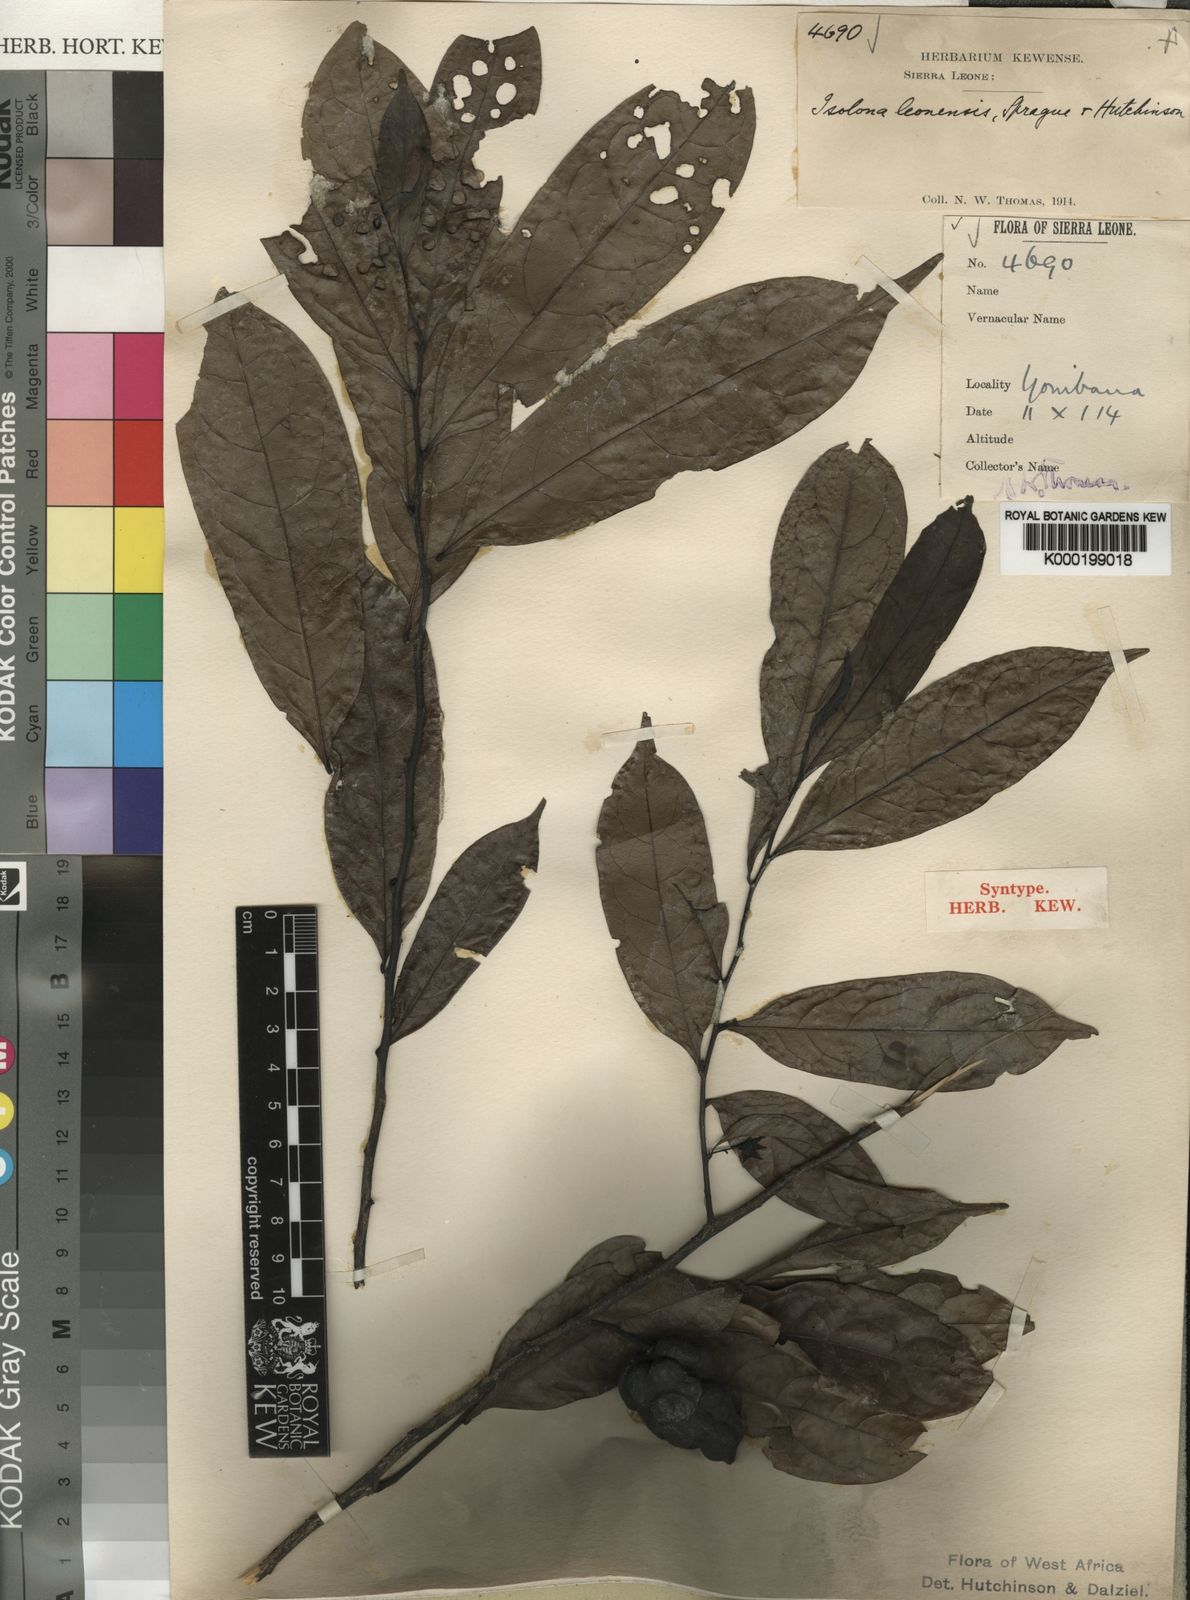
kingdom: Plantae
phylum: Tracheophyta
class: Magnoliopsida
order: Magnoliales
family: Annonaceae
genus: Isolona
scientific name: Isolona campanulata
